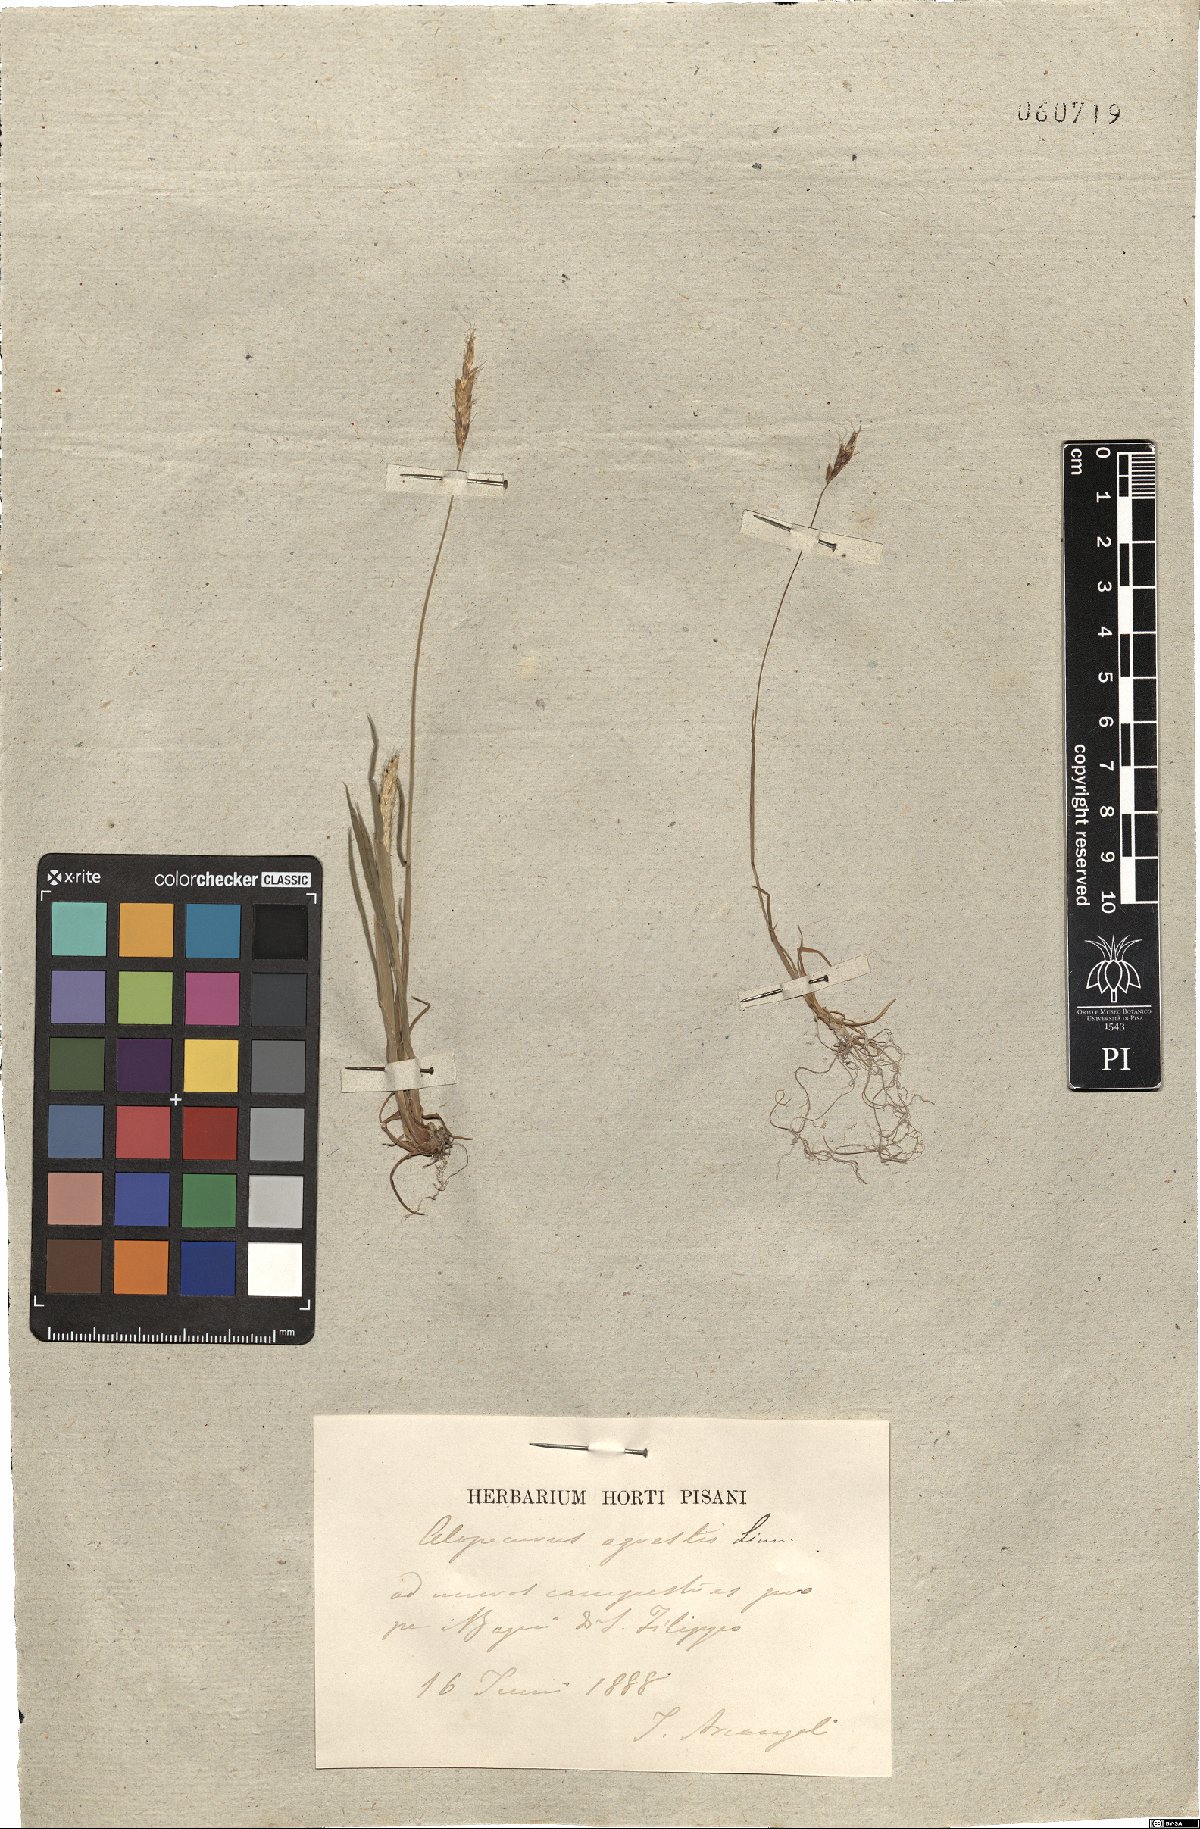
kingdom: Plantae
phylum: Tracheophyta
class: Liliopsida
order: Poales
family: Poaceae
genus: Alopecurus
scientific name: Alopecurus myosuroides
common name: Black-grass
